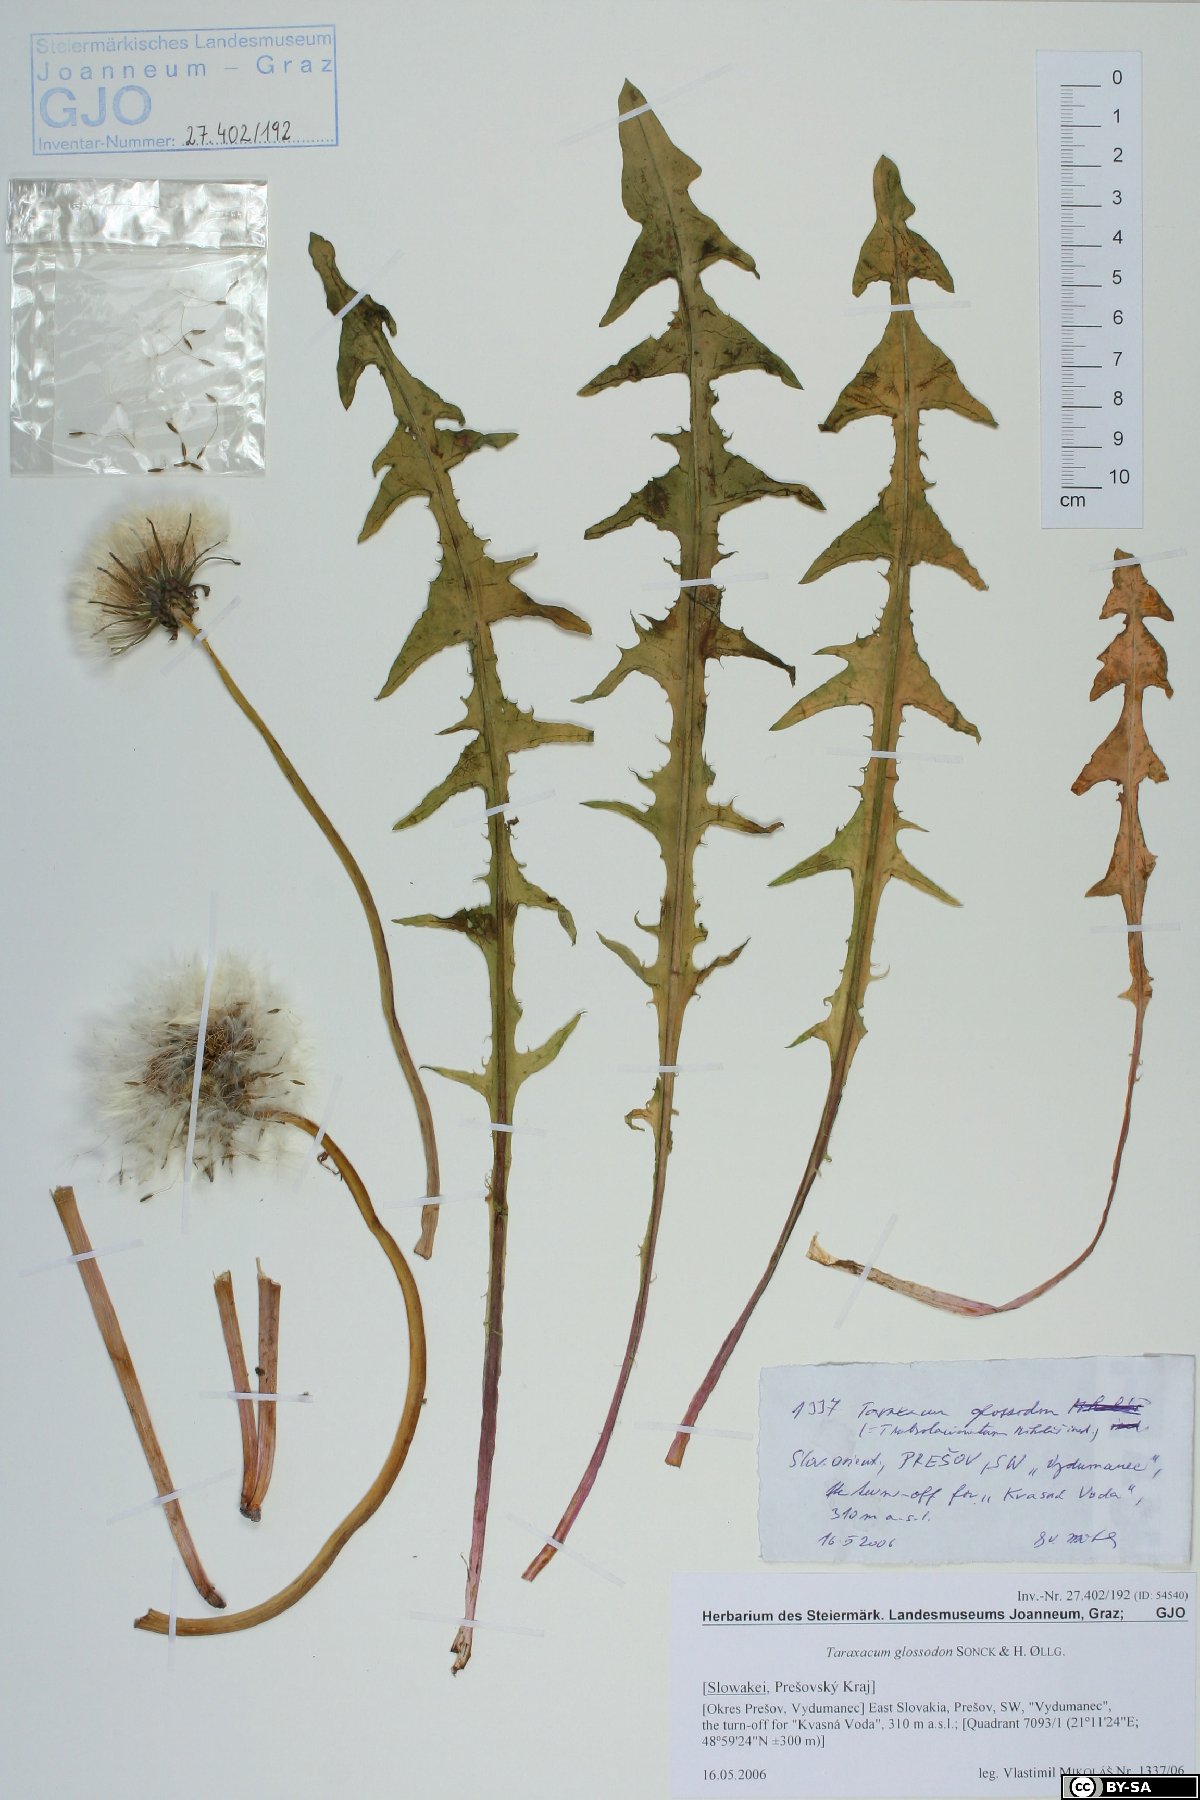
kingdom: Plantae
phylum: Tracheophyta
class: Magnoliopsida
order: Asterales
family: Asteraceae
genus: Taraxacum
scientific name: Taraxacum glossodon
